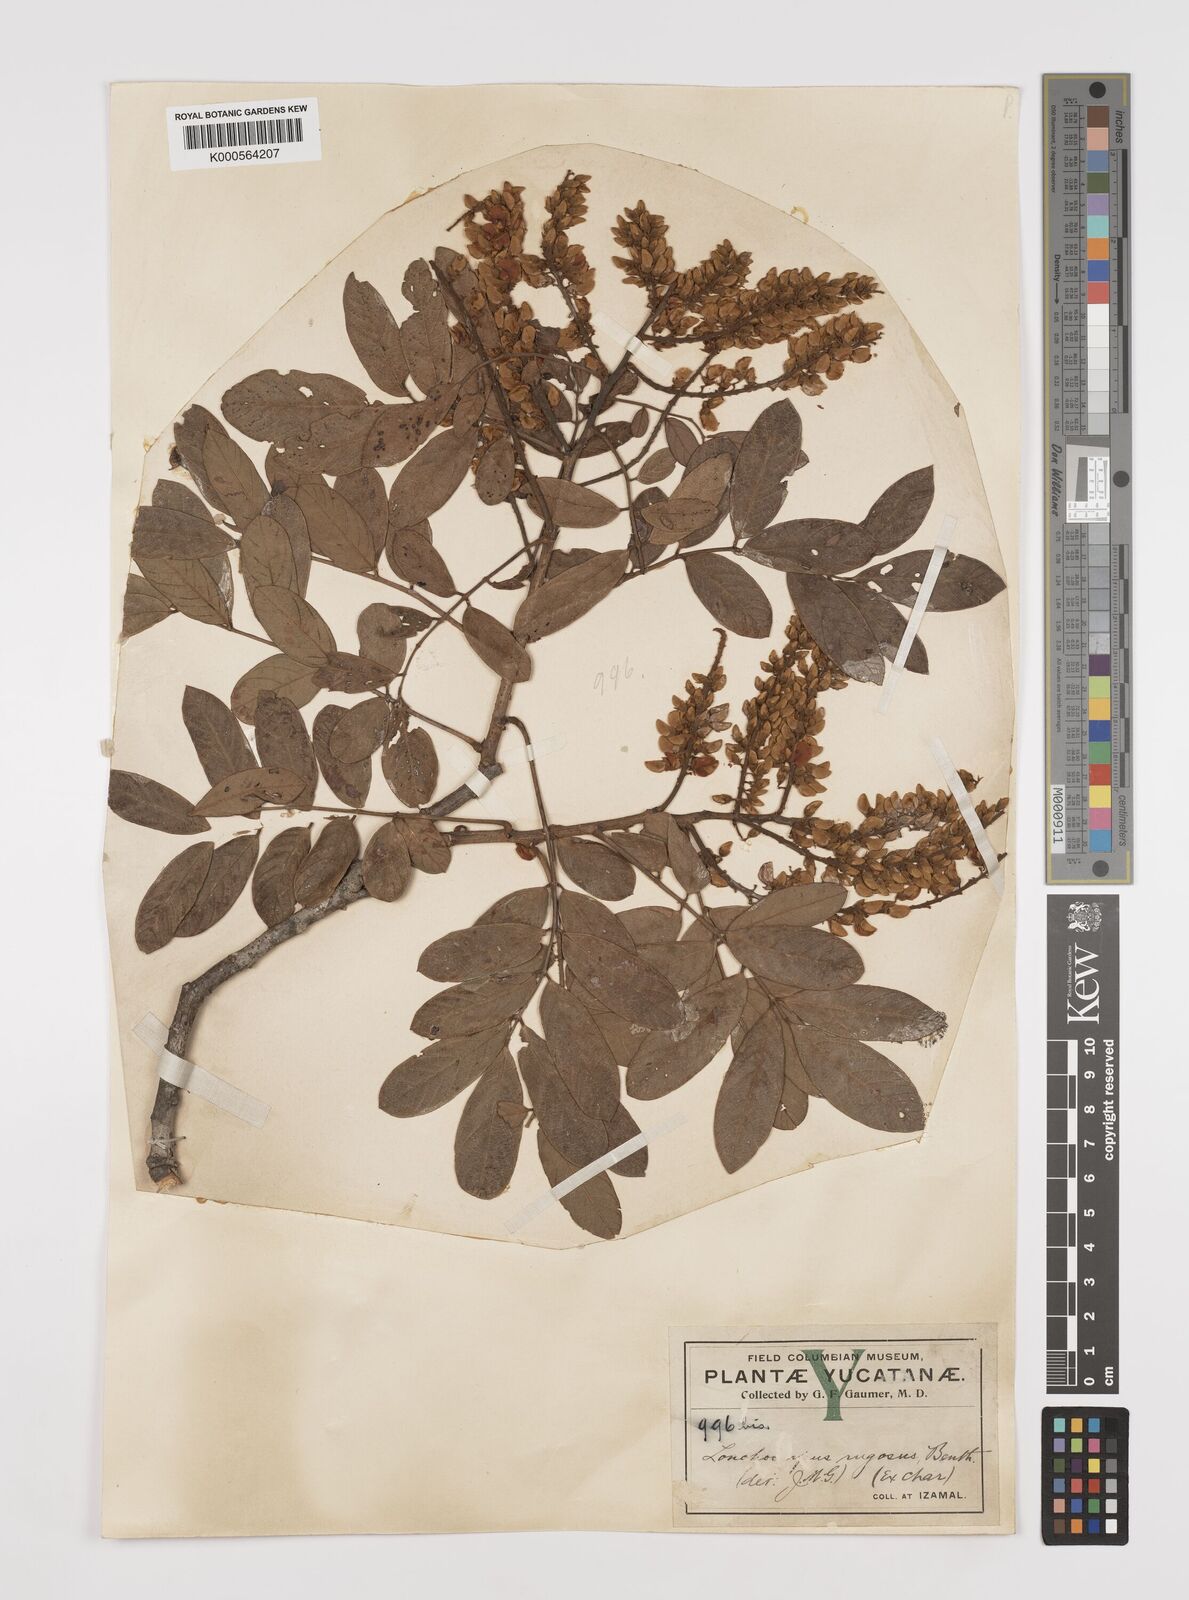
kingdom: Plantae
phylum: Tracheophyta
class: Magnoliopsida
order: Fabales
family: Fabaceae
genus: Lonchocarpus
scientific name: Lonchocarpus rugosus
